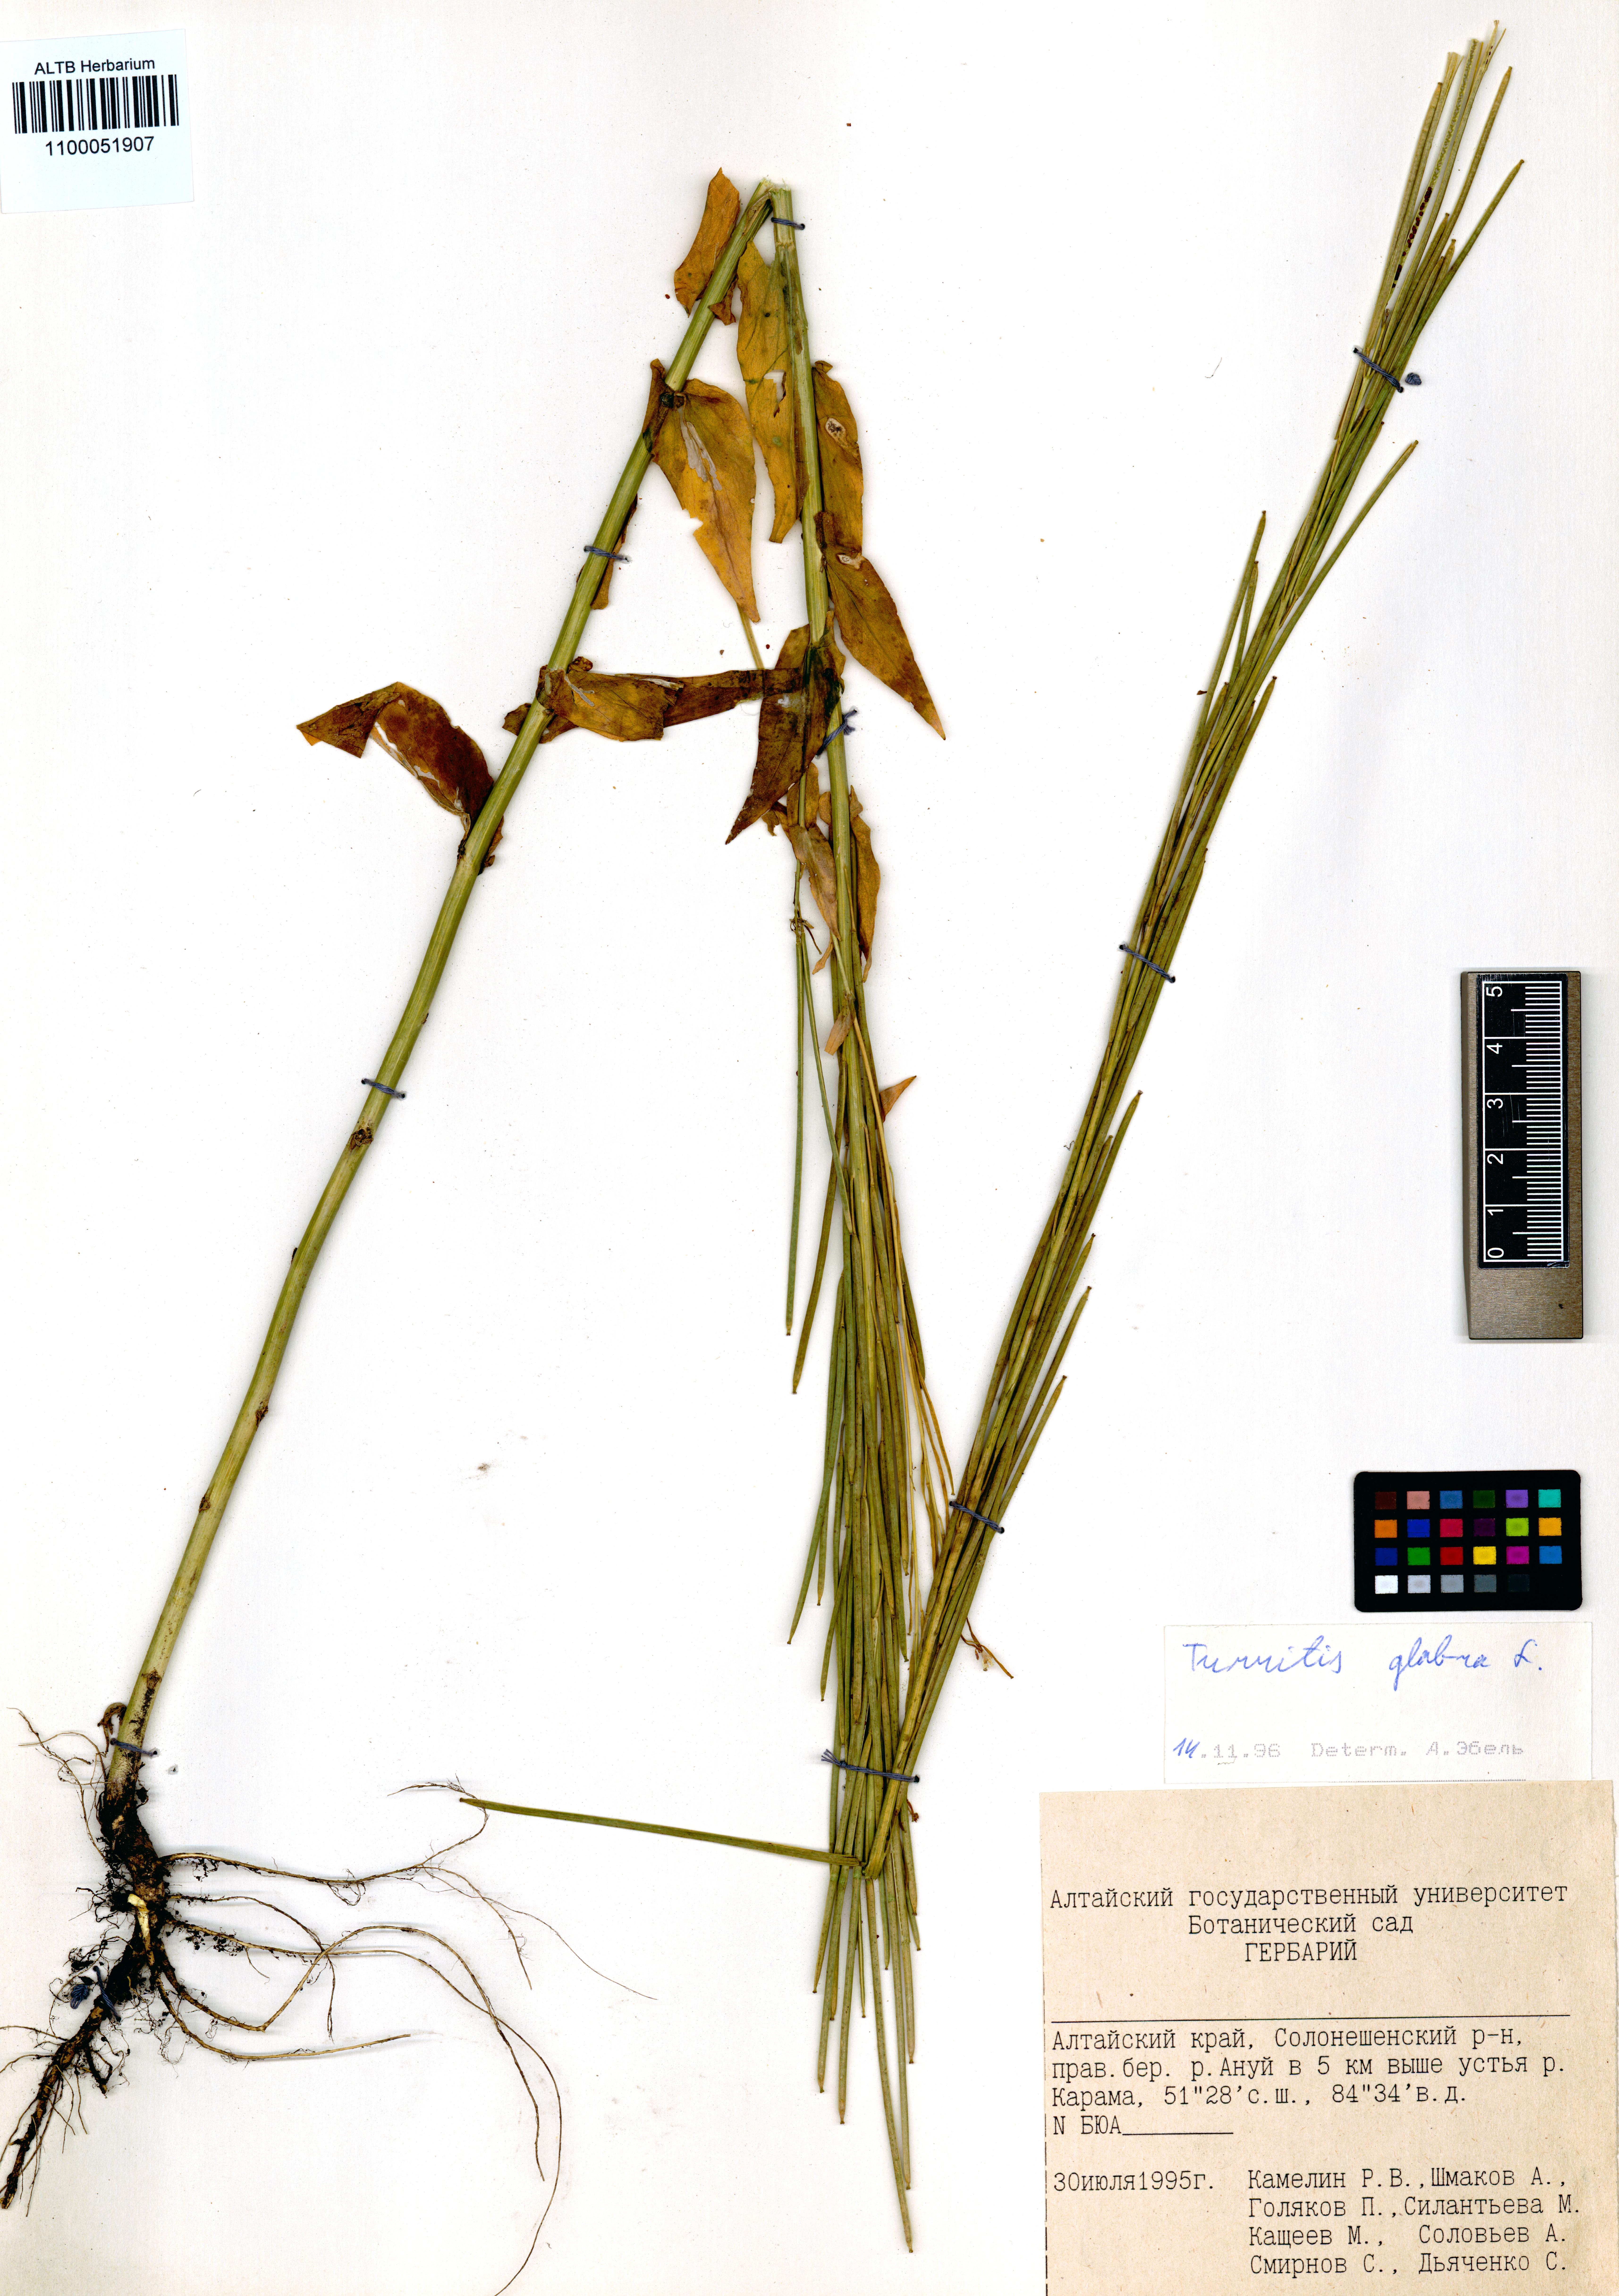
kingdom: Plantae
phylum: Tracheophyta
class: Magnoliopsida
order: Brassicales
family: Brassicaceae
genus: Turritis
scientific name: Turritis glabra
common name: Tower rockcress
